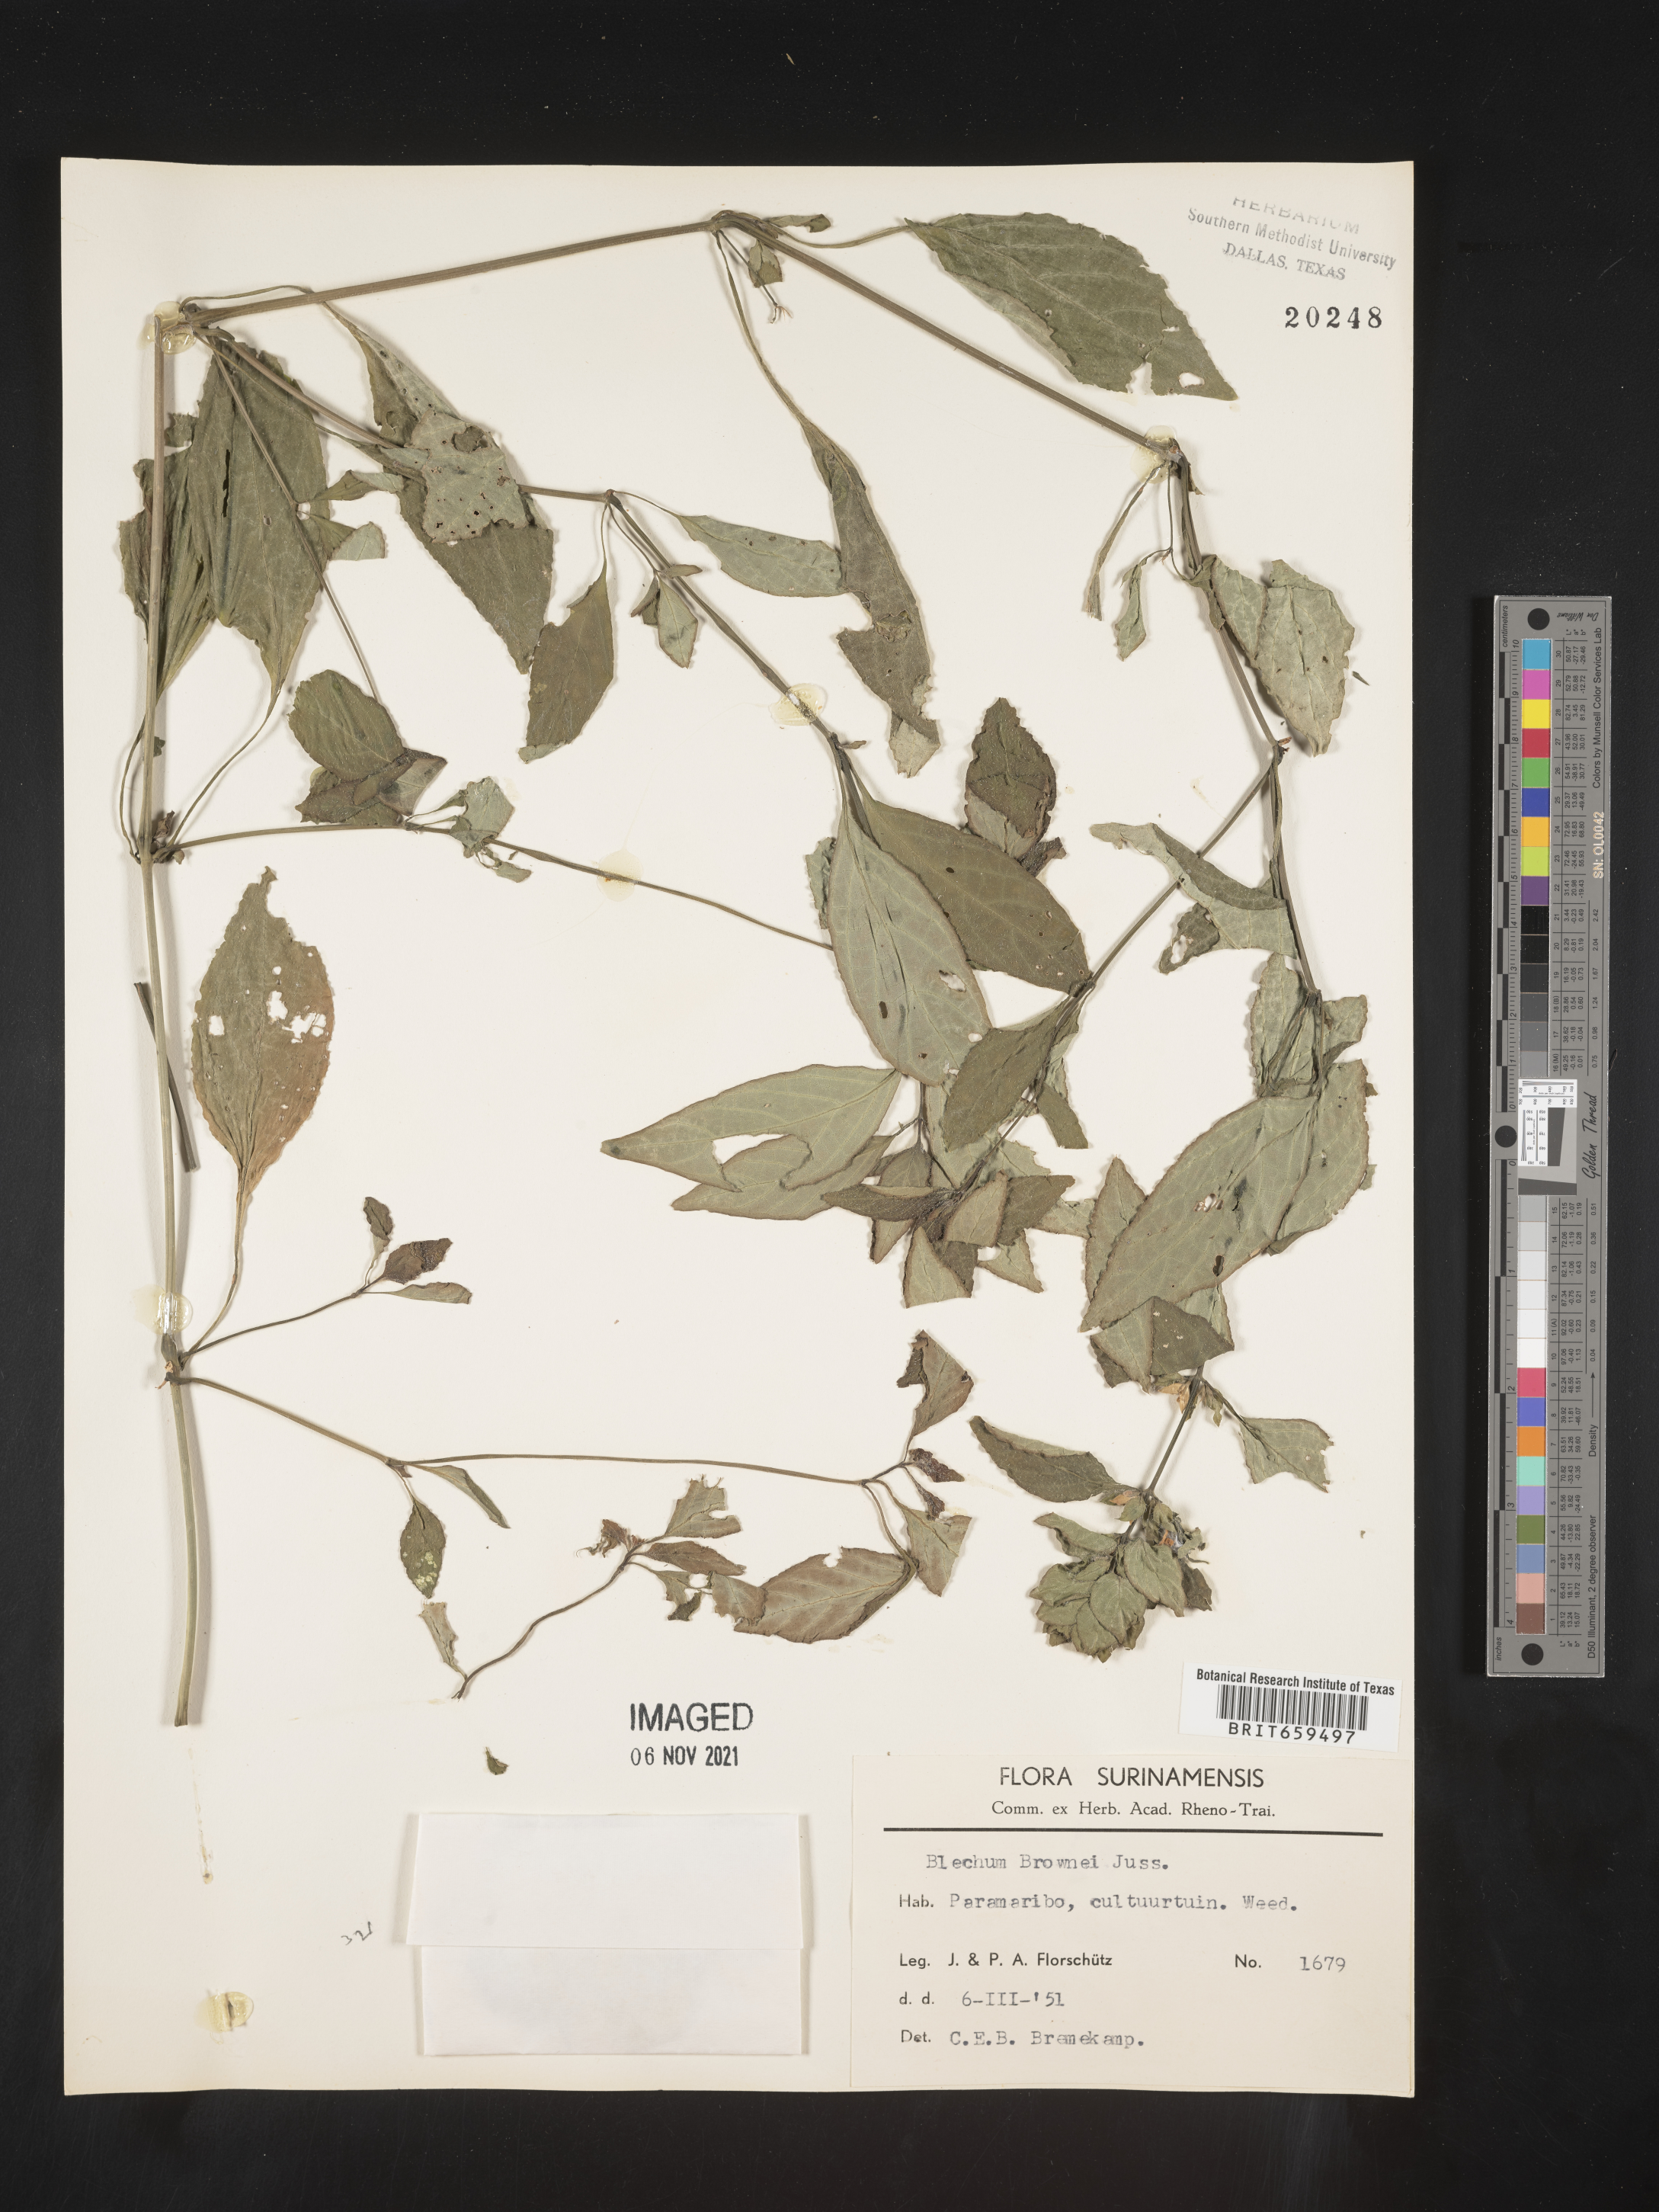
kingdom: Plantae
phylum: Tracheophyta
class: Polypodiopsida
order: Polypodiales
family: Blechnaceae
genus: Blechum
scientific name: Blechum
